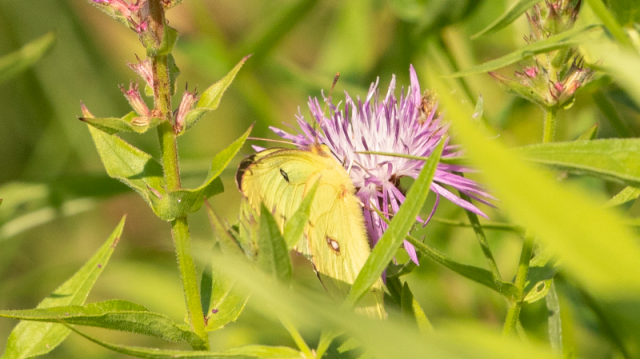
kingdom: Animalia
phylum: Arthropoda
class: Insecta
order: Lepidoptera
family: Pieridae
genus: Colias
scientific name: Colias philodice
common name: Clouded Sulphur
